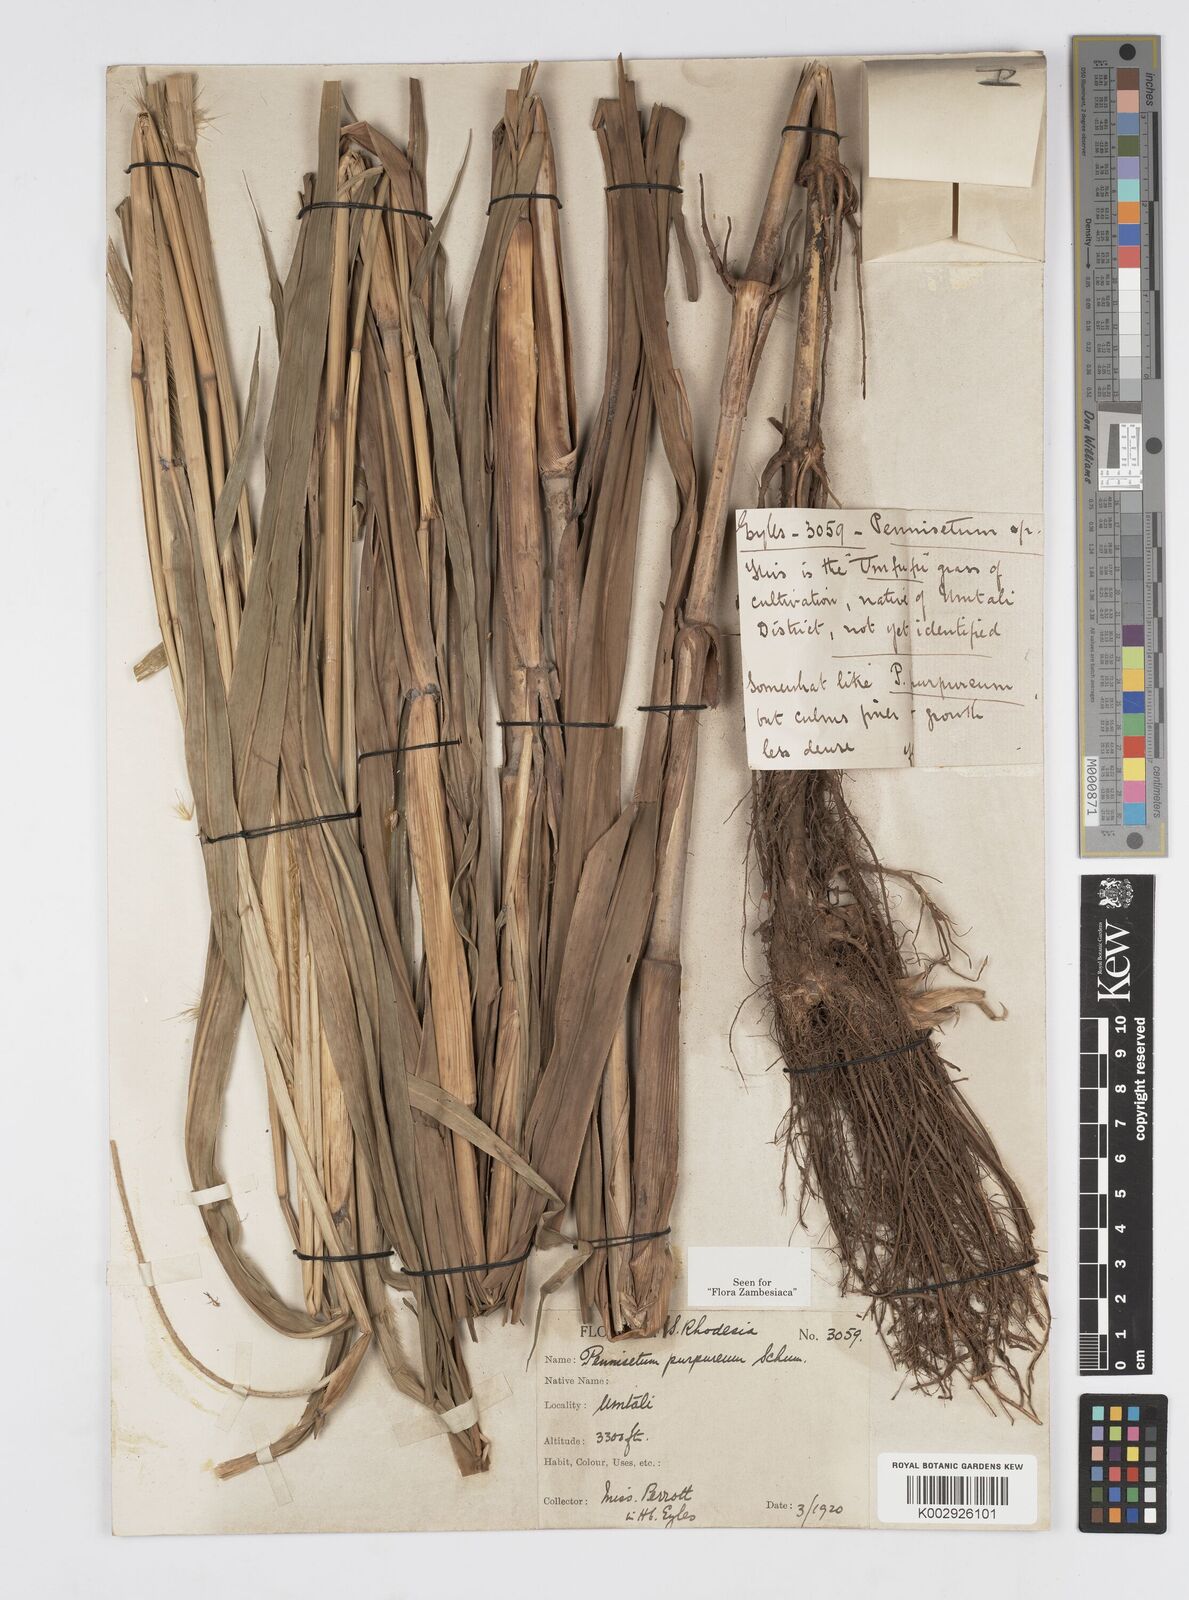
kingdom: Plantae
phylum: Tracheophyta
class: Liliopsida
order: Poales
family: Poaceae
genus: Cenchrus
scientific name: Cenchrus purpureus
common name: Elephant grass
